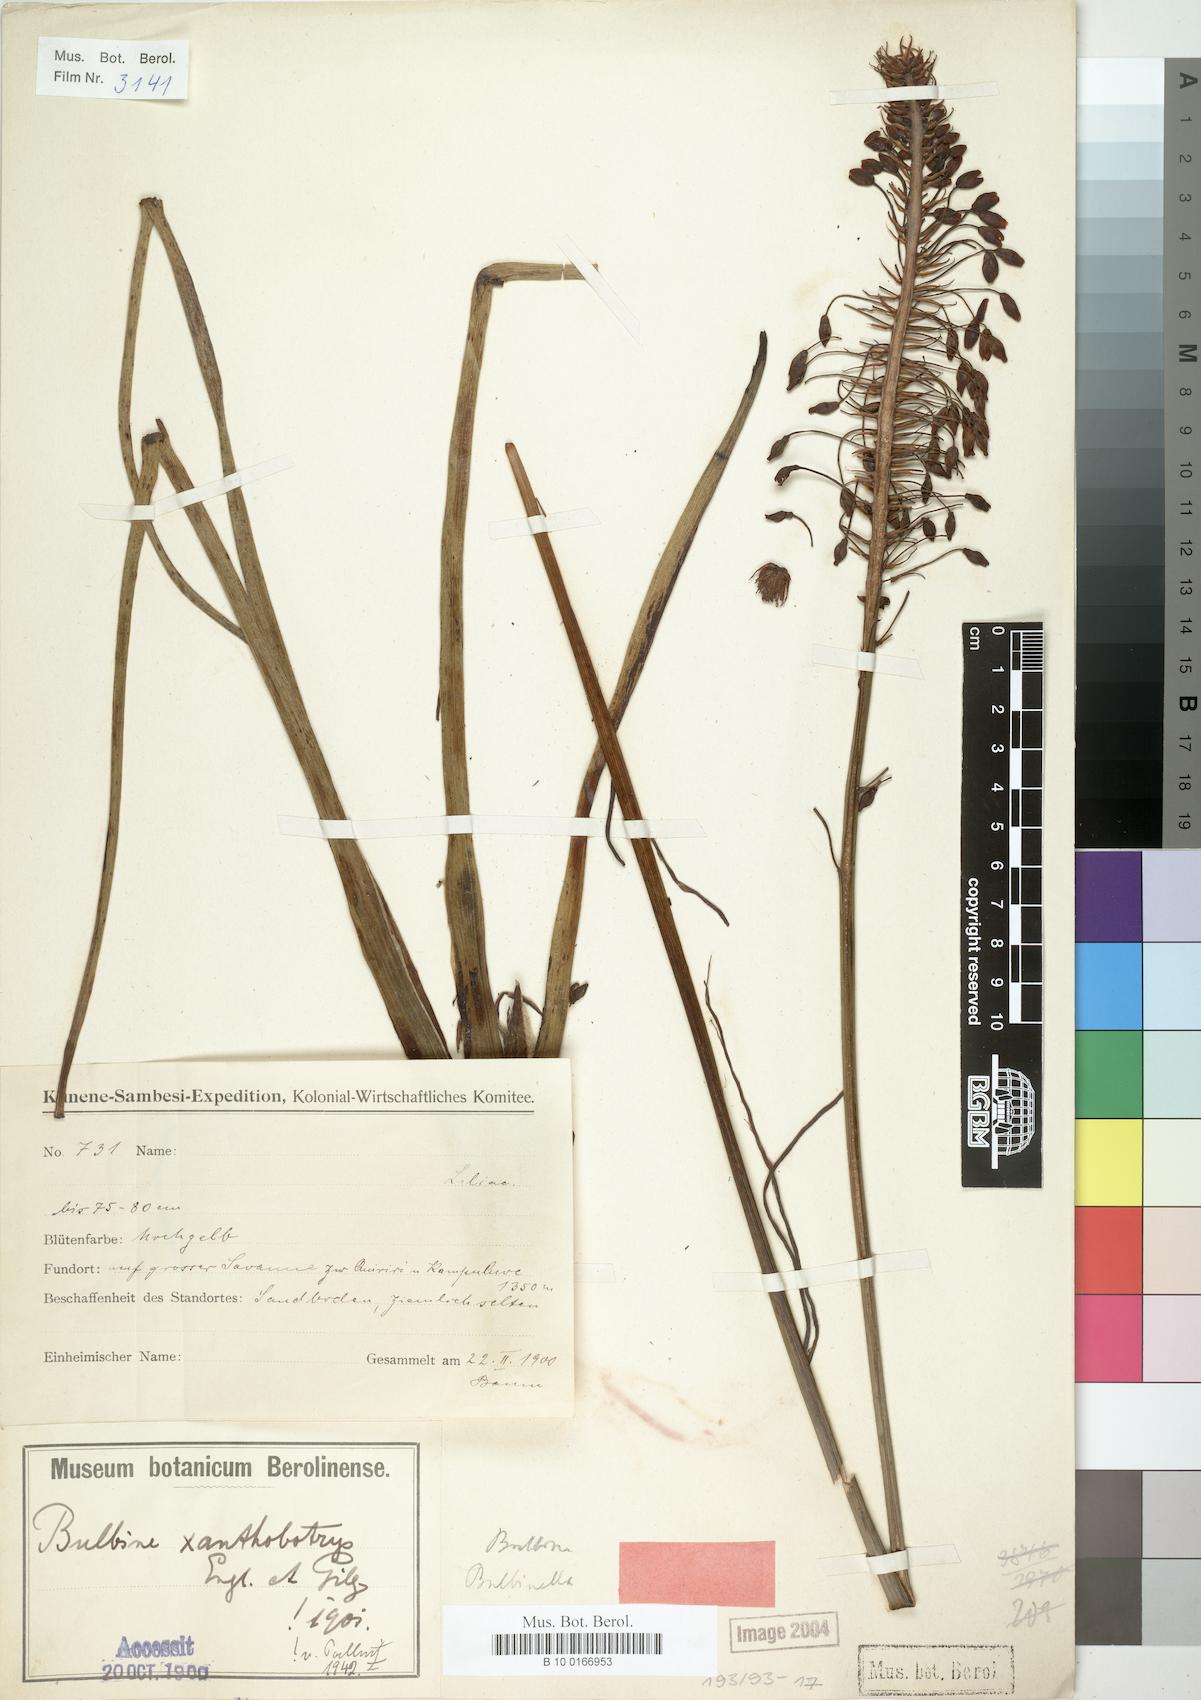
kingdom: Plantae
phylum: Tracheophyta
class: Liliopsida
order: Asparagales
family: Asphodelaceae
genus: Bulbine
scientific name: Bulbine abyssinica
